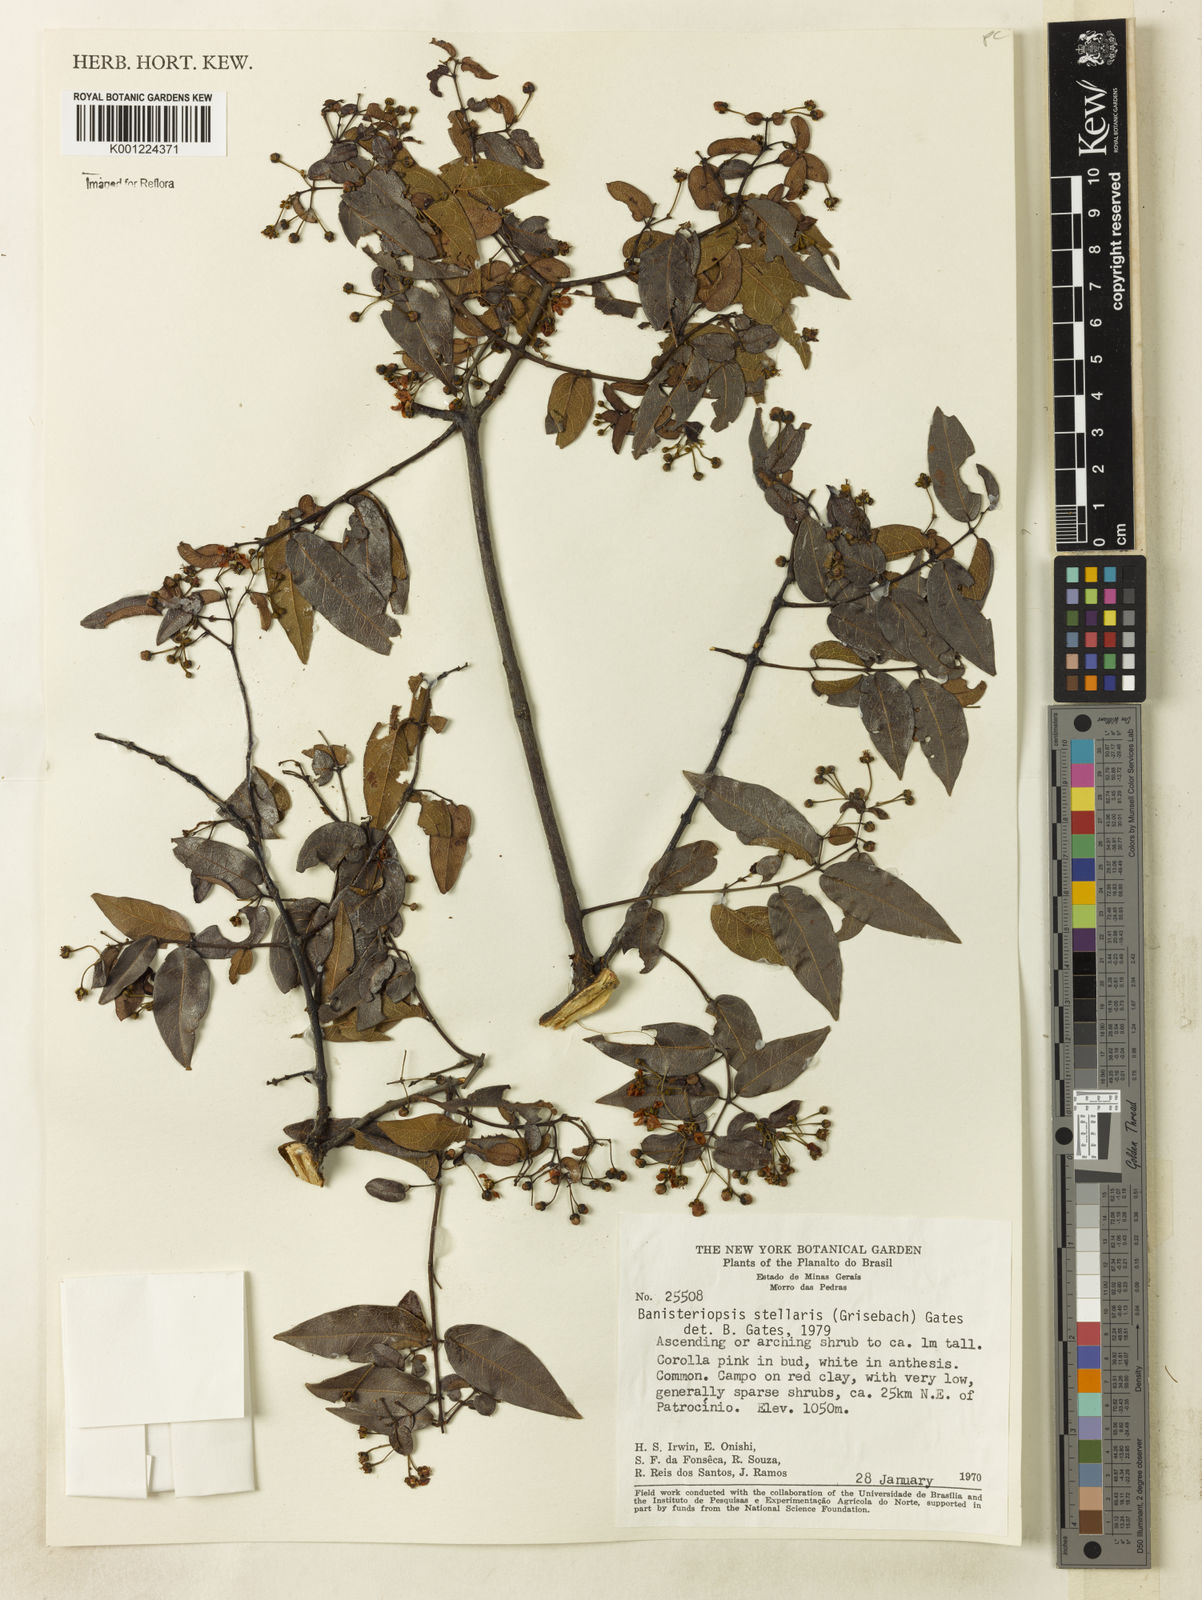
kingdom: Plantae
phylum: Tracheophyta
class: Magnoliopsida
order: Malpighiales
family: Malpighiaceae
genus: Banisteriopsis
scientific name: Banisteriopsis stellaris
